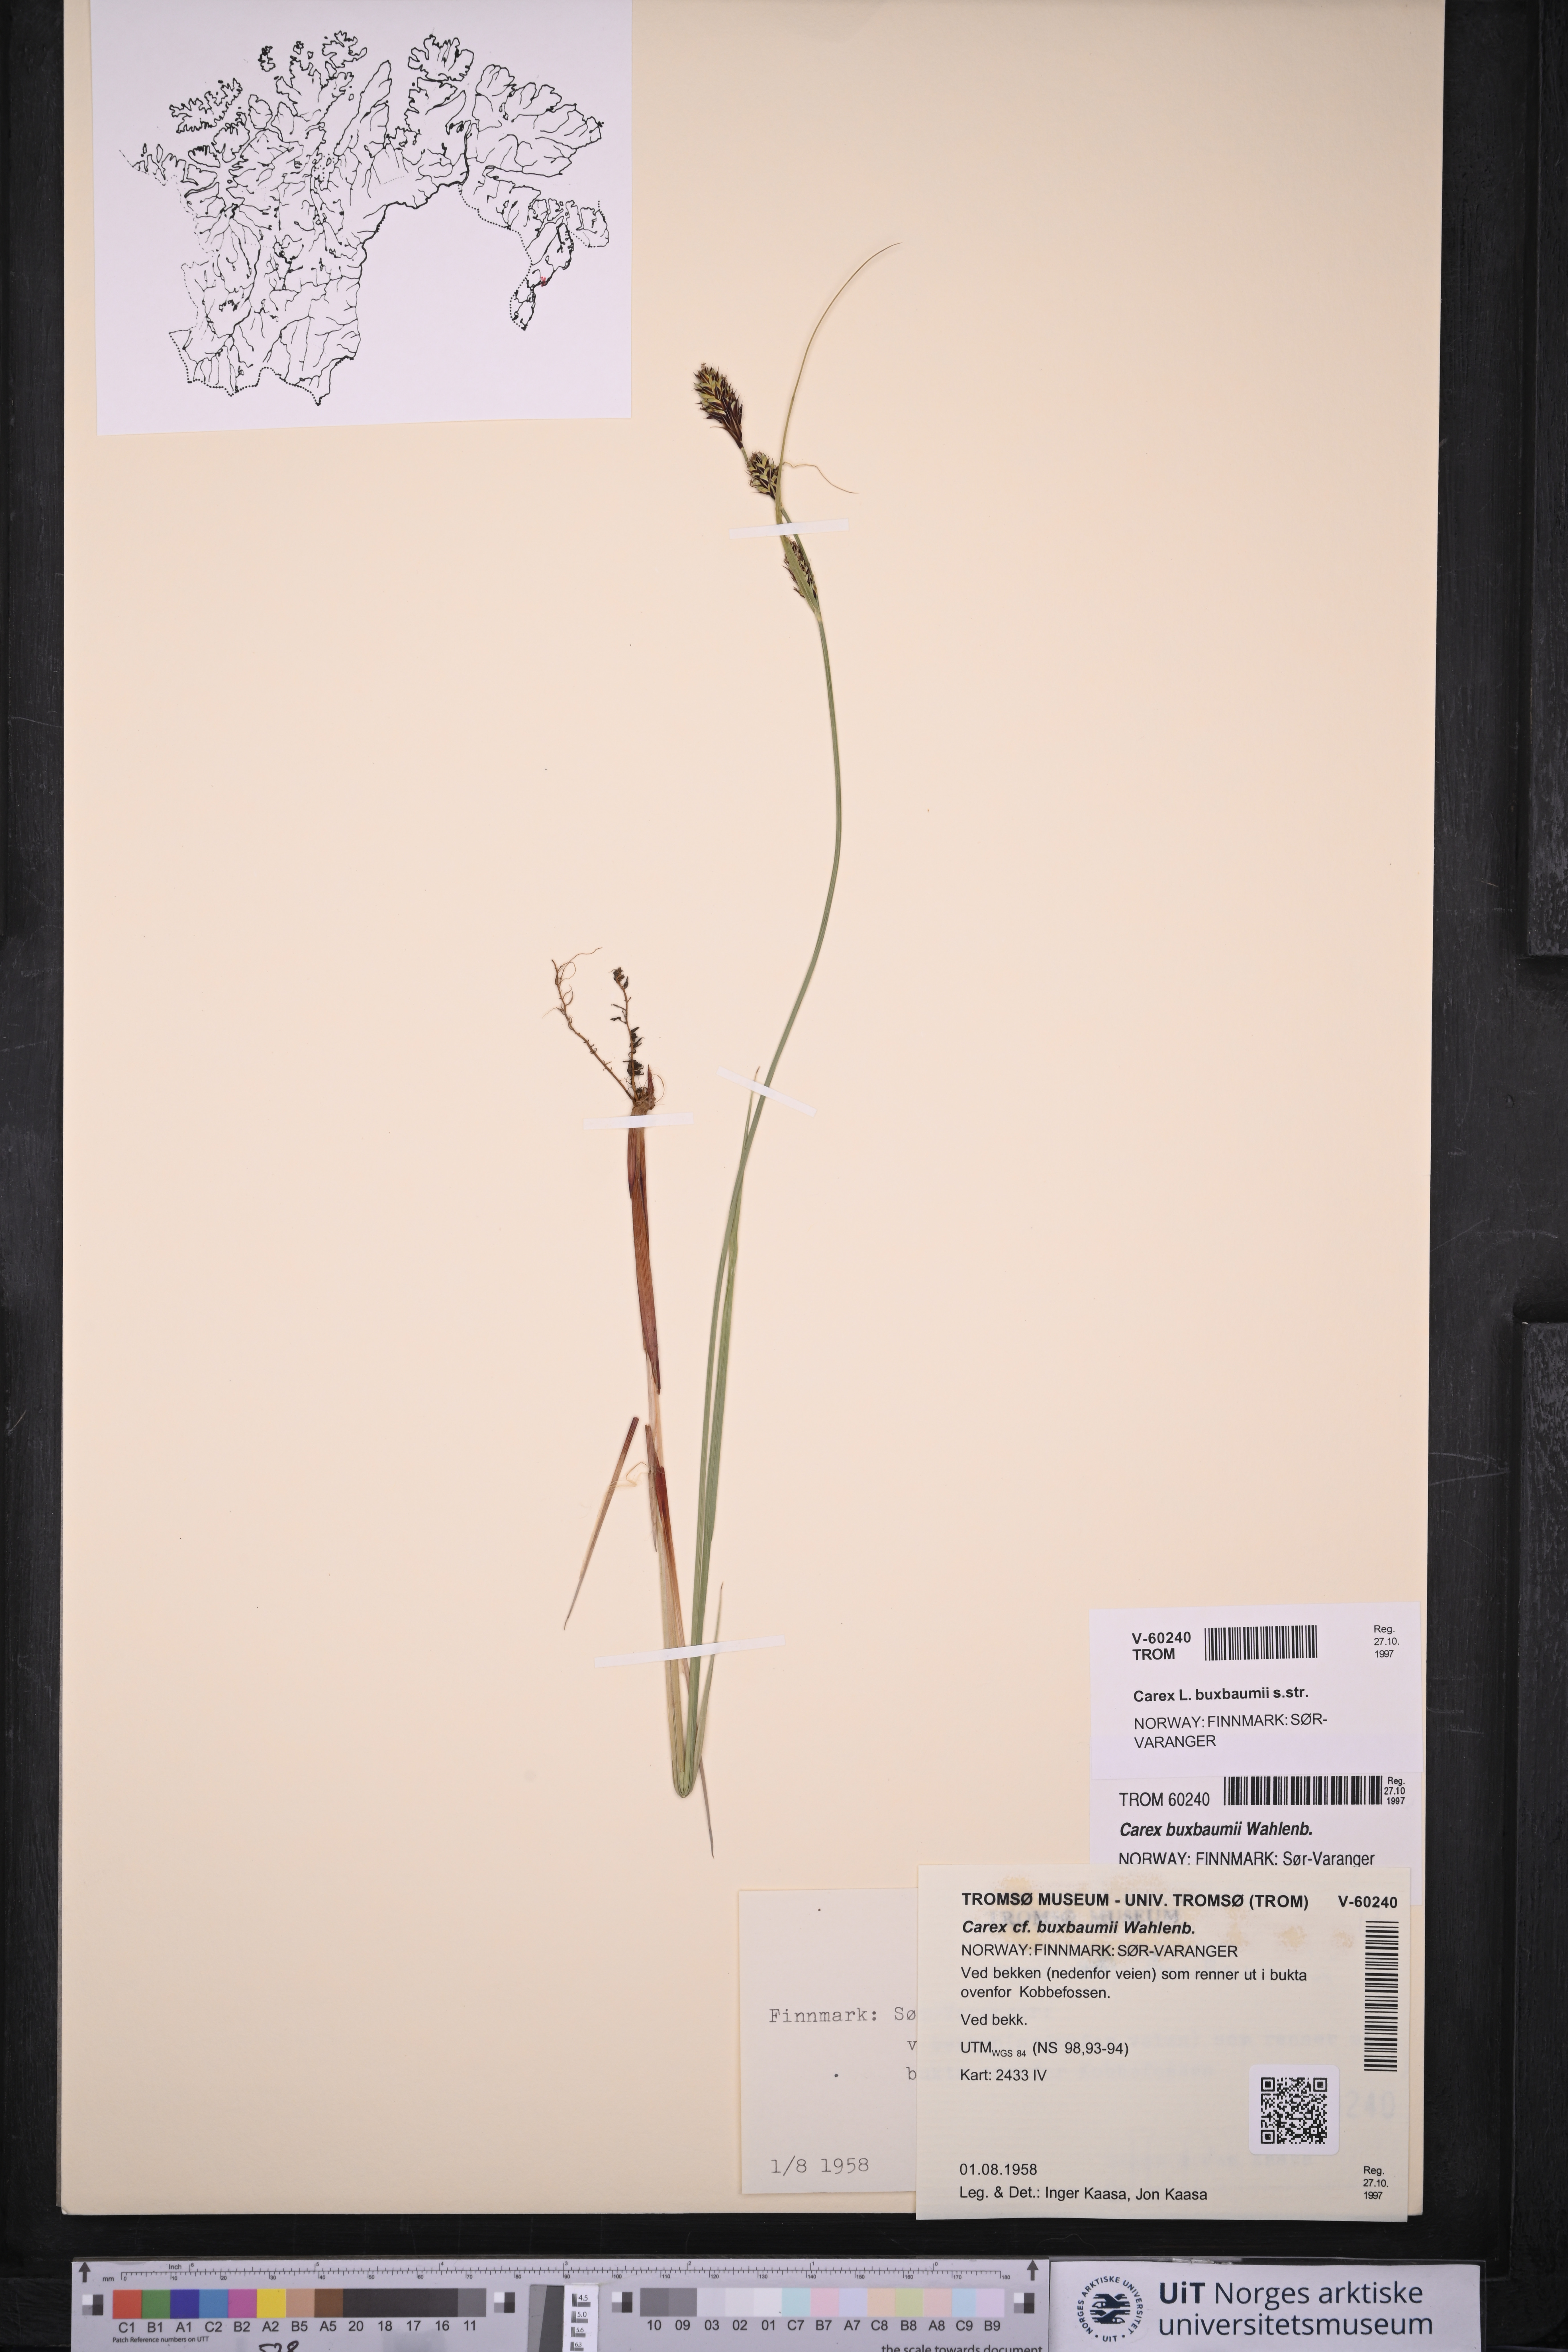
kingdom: Plantae
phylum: Tracheophyta
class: Liliopsida
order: Poales
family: Cyperaceae
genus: Carex
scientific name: Carex buxbaumii
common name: Club sedge
